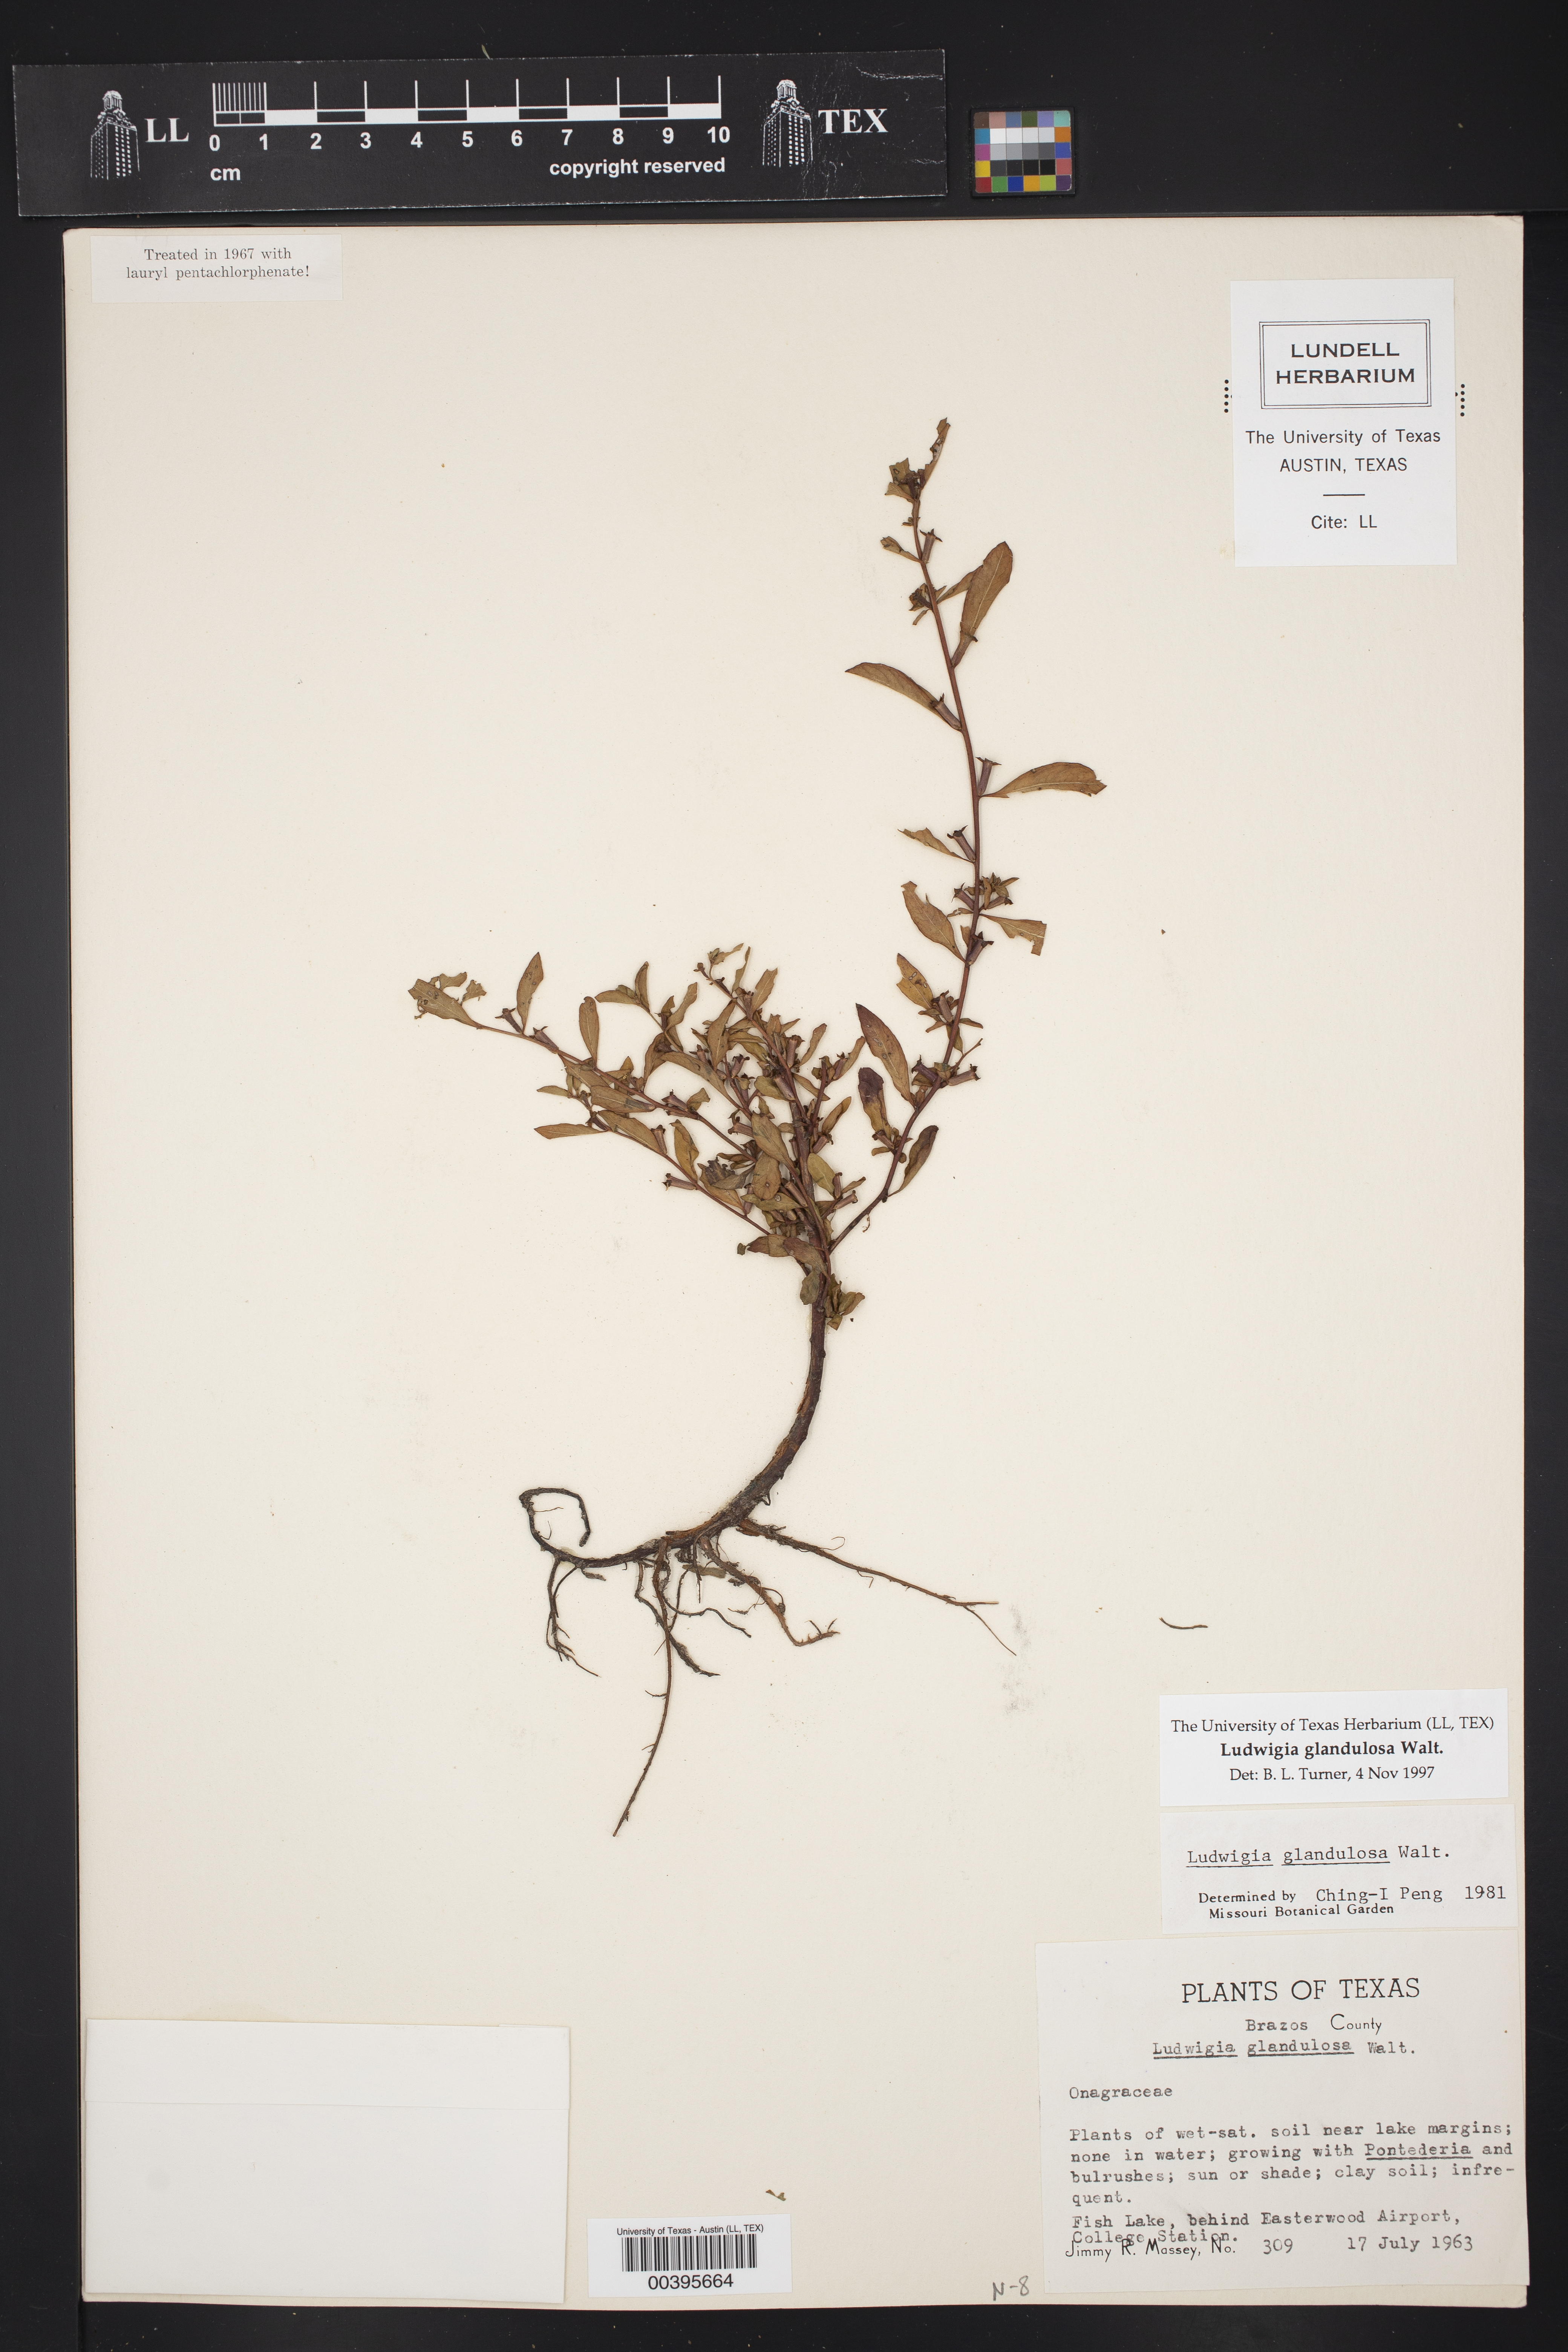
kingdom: Plantae
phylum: Tracheophyta
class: Magnoliopsida
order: Myrtales
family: Onagraceae
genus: Ludwigia
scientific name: Ludwigia glandulosa
